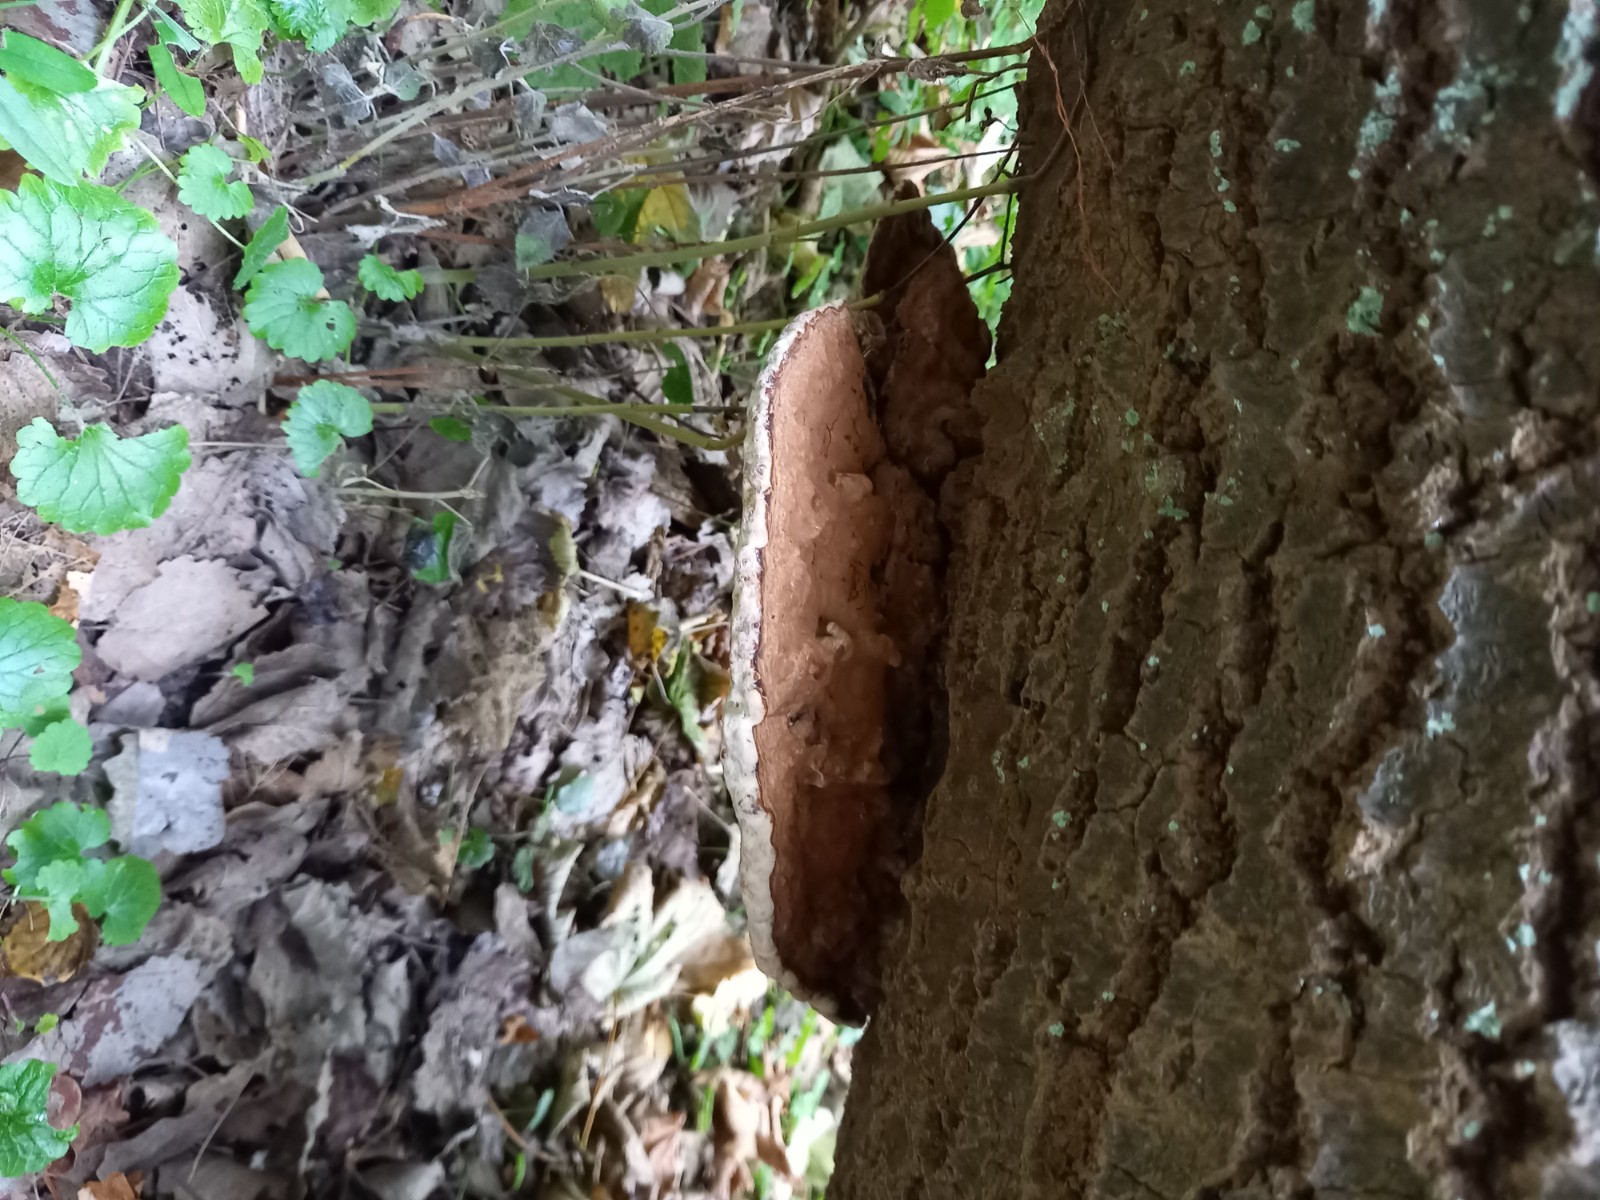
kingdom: Fungi
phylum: Basidiomycota
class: Agaricomycetes
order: Polyporales
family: Polyporaceae
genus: Ganoderma
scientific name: Ganoderma applanatum
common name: flad lakporesvamp
